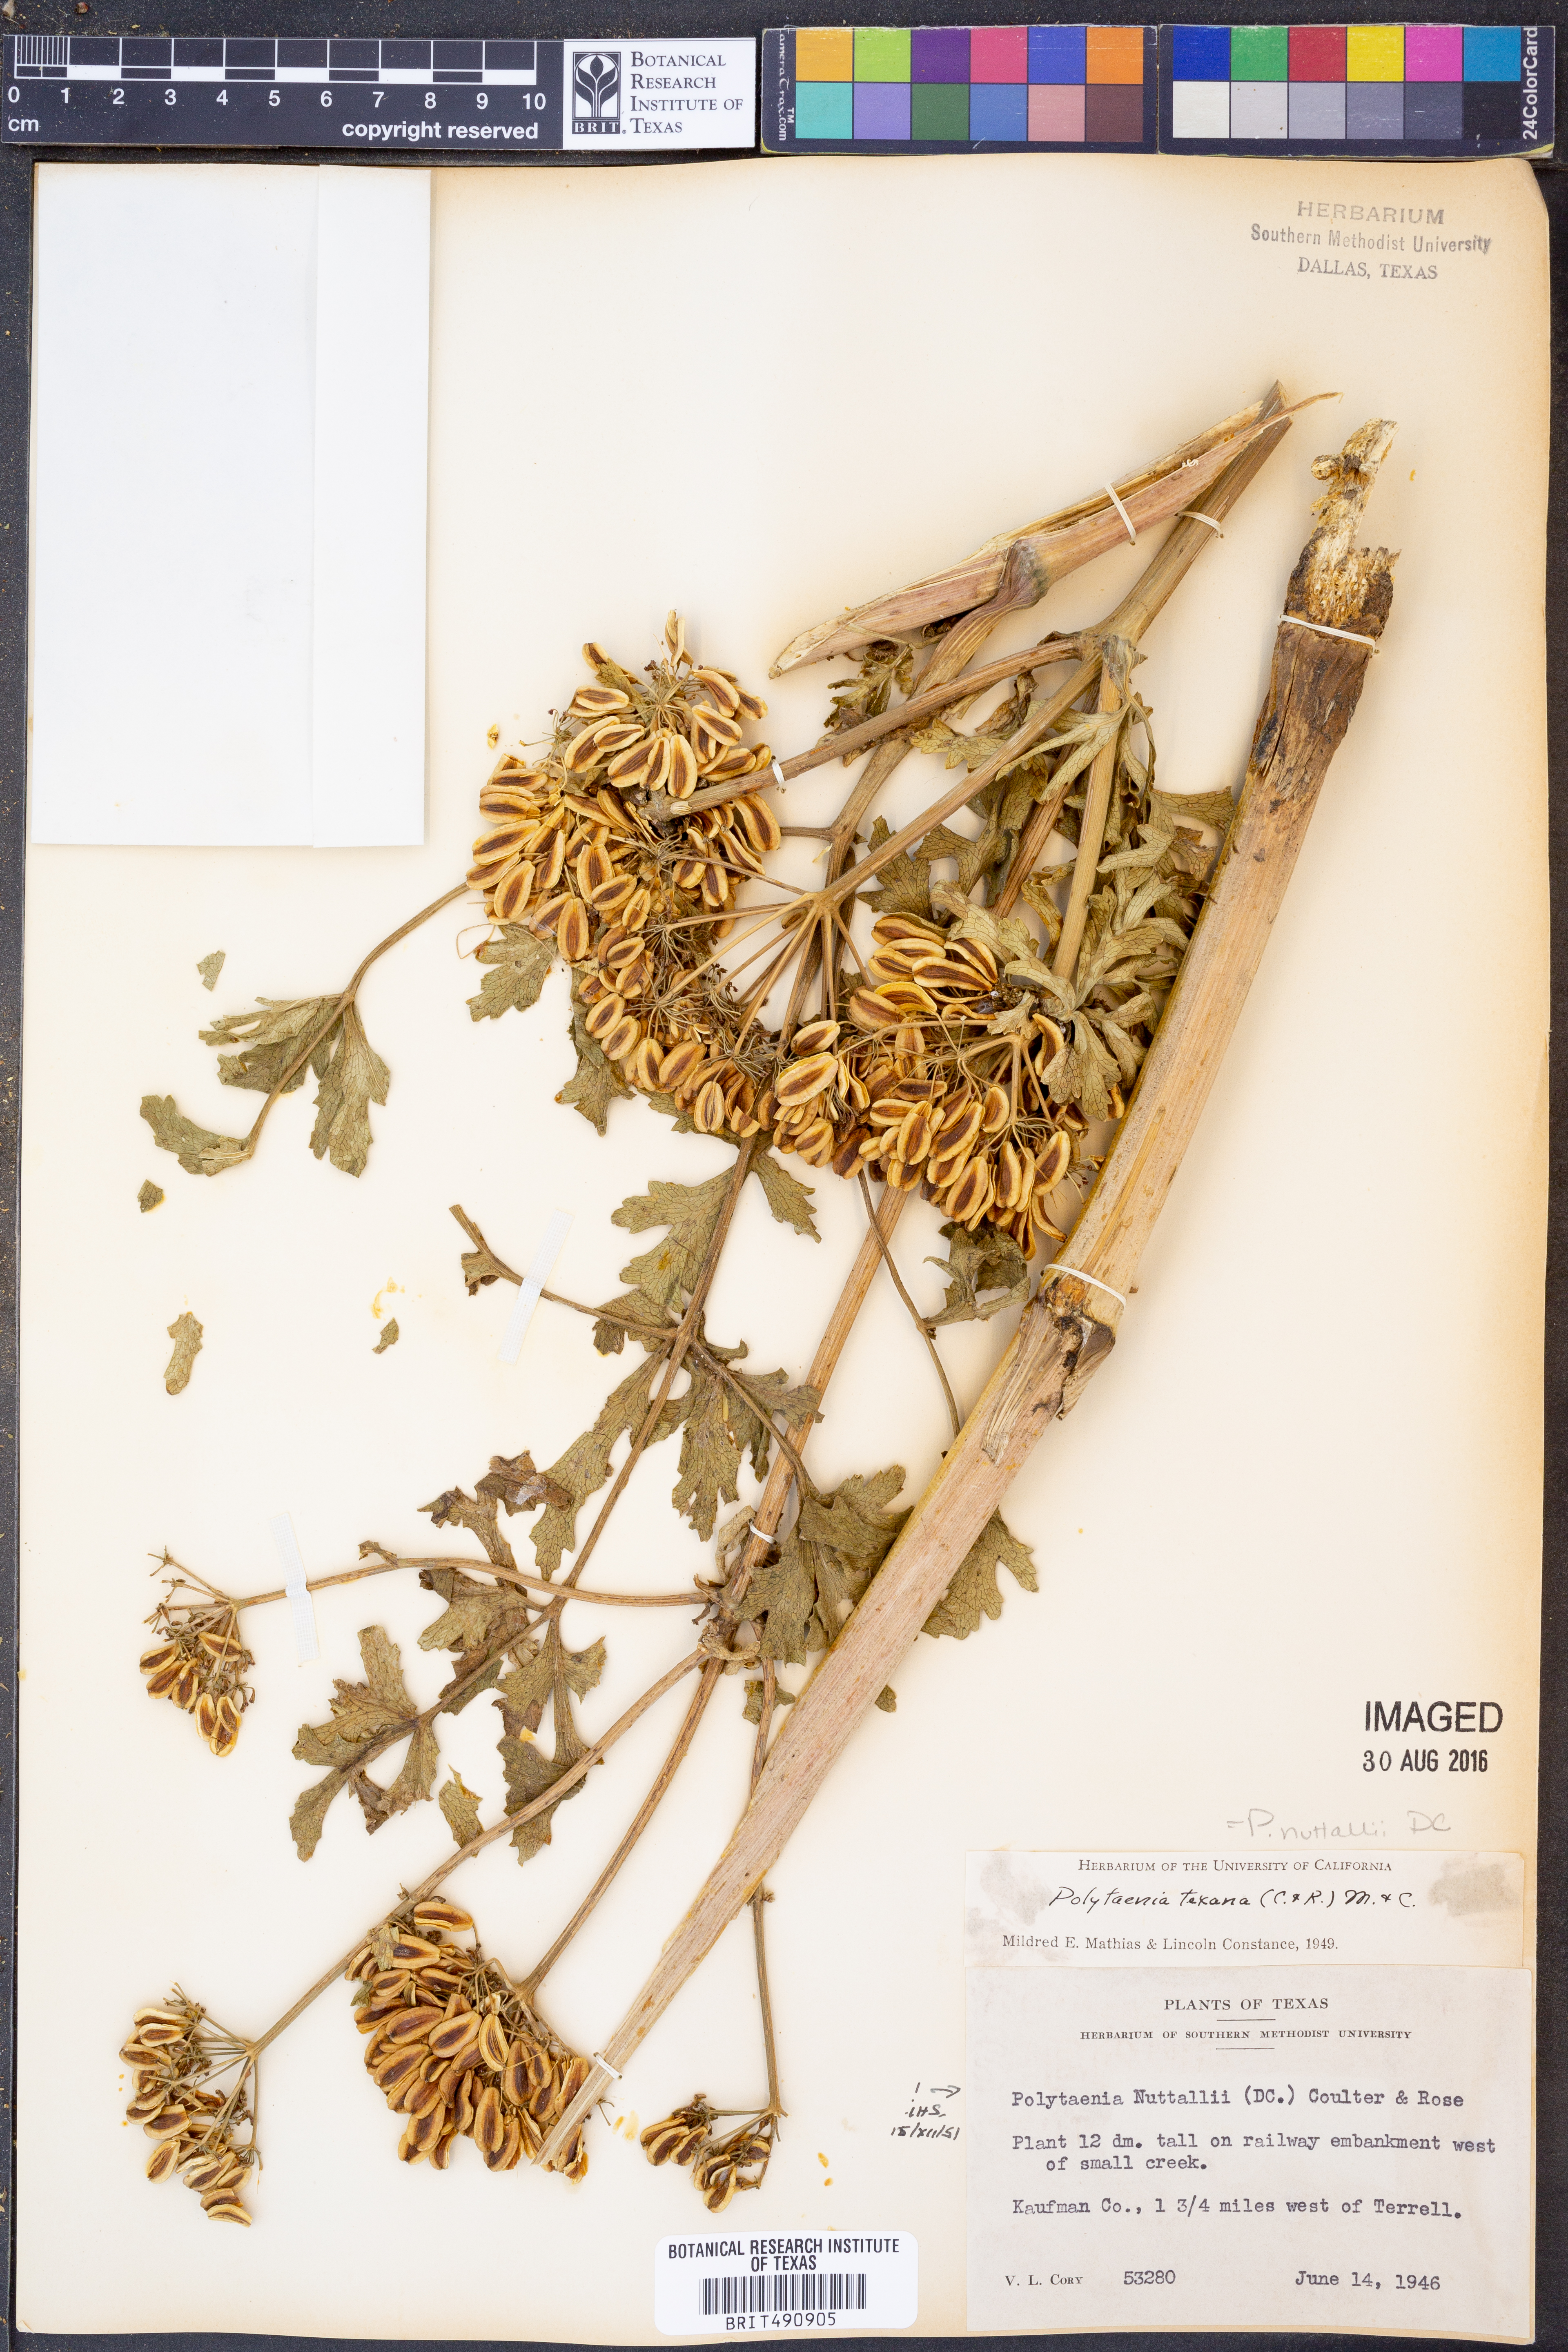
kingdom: Plantae
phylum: Tracheophyta
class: Magnoliopsida
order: Apiales
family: Apiaceae
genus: Polytaenia
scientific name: Polytaenia nuttallii
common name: Prairie-parsley
